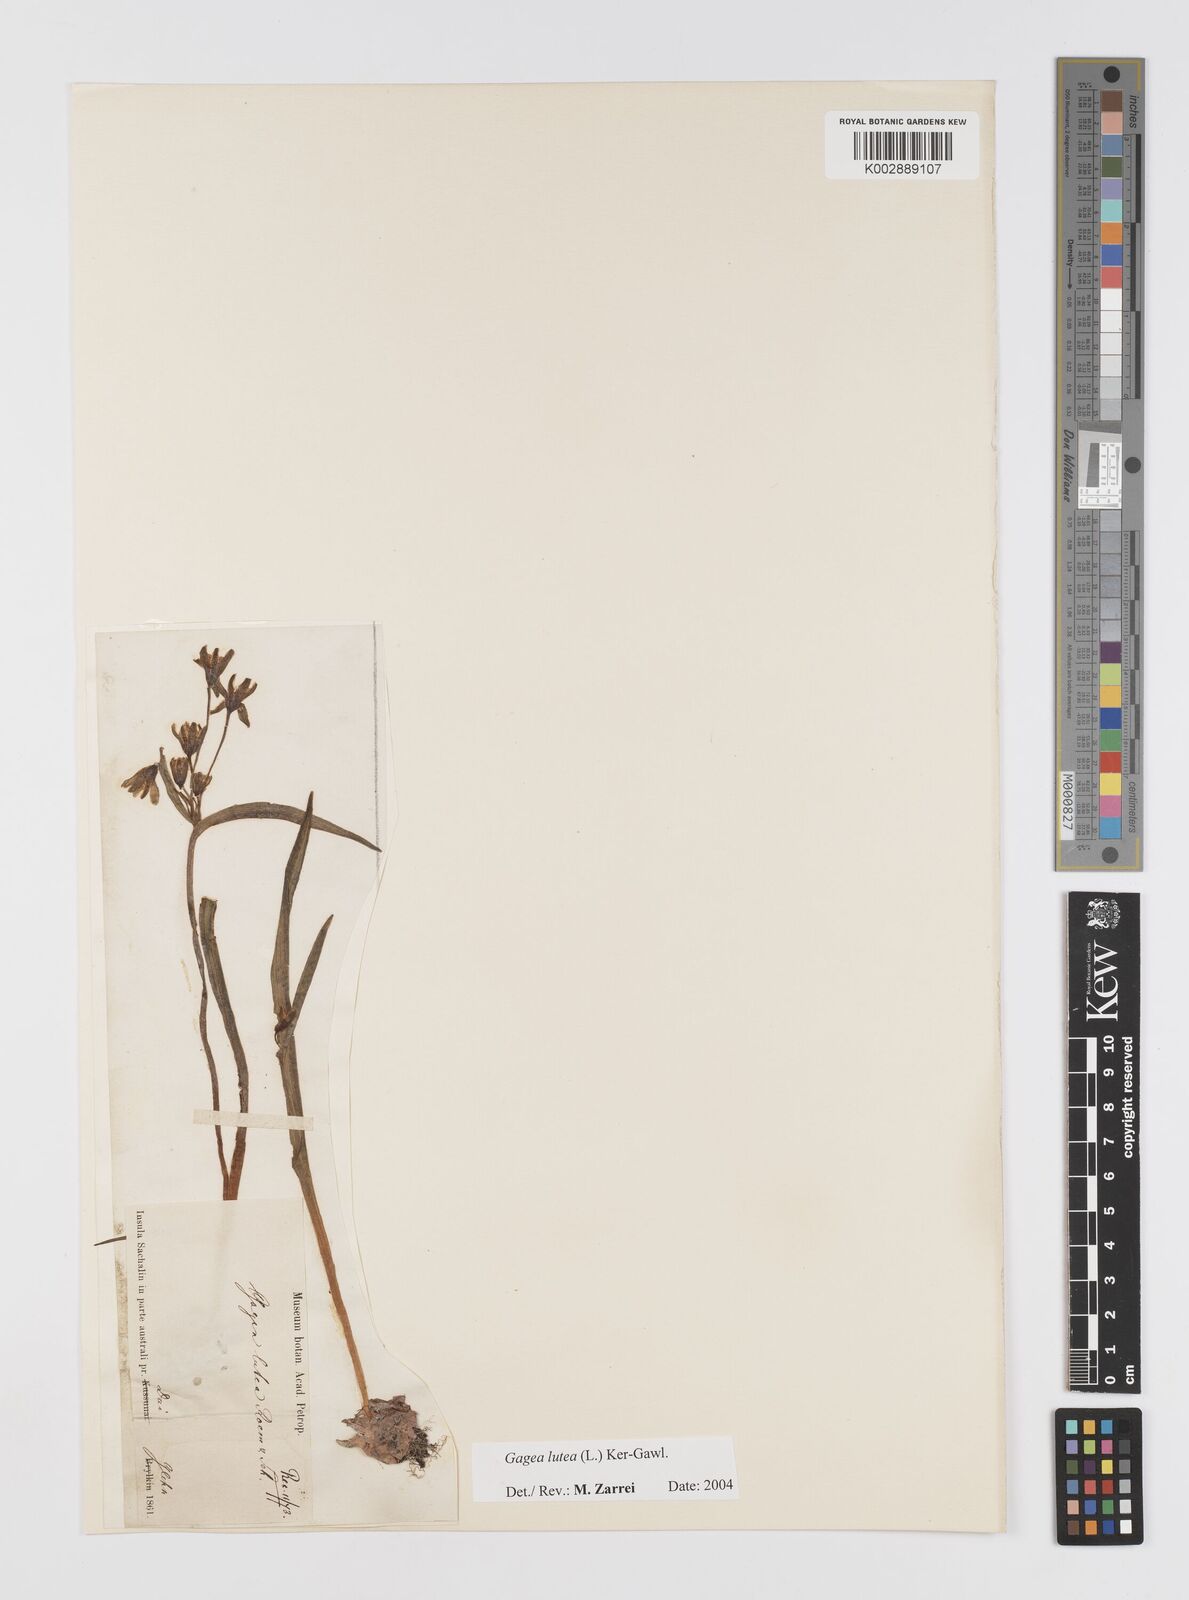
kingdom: Plantae
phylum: Tracheophyta
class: Liliopsida
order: Liliales
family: Liliaceae
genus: Gagea
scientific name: Gagea lutea
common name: Yellow star-of-bethlehem
